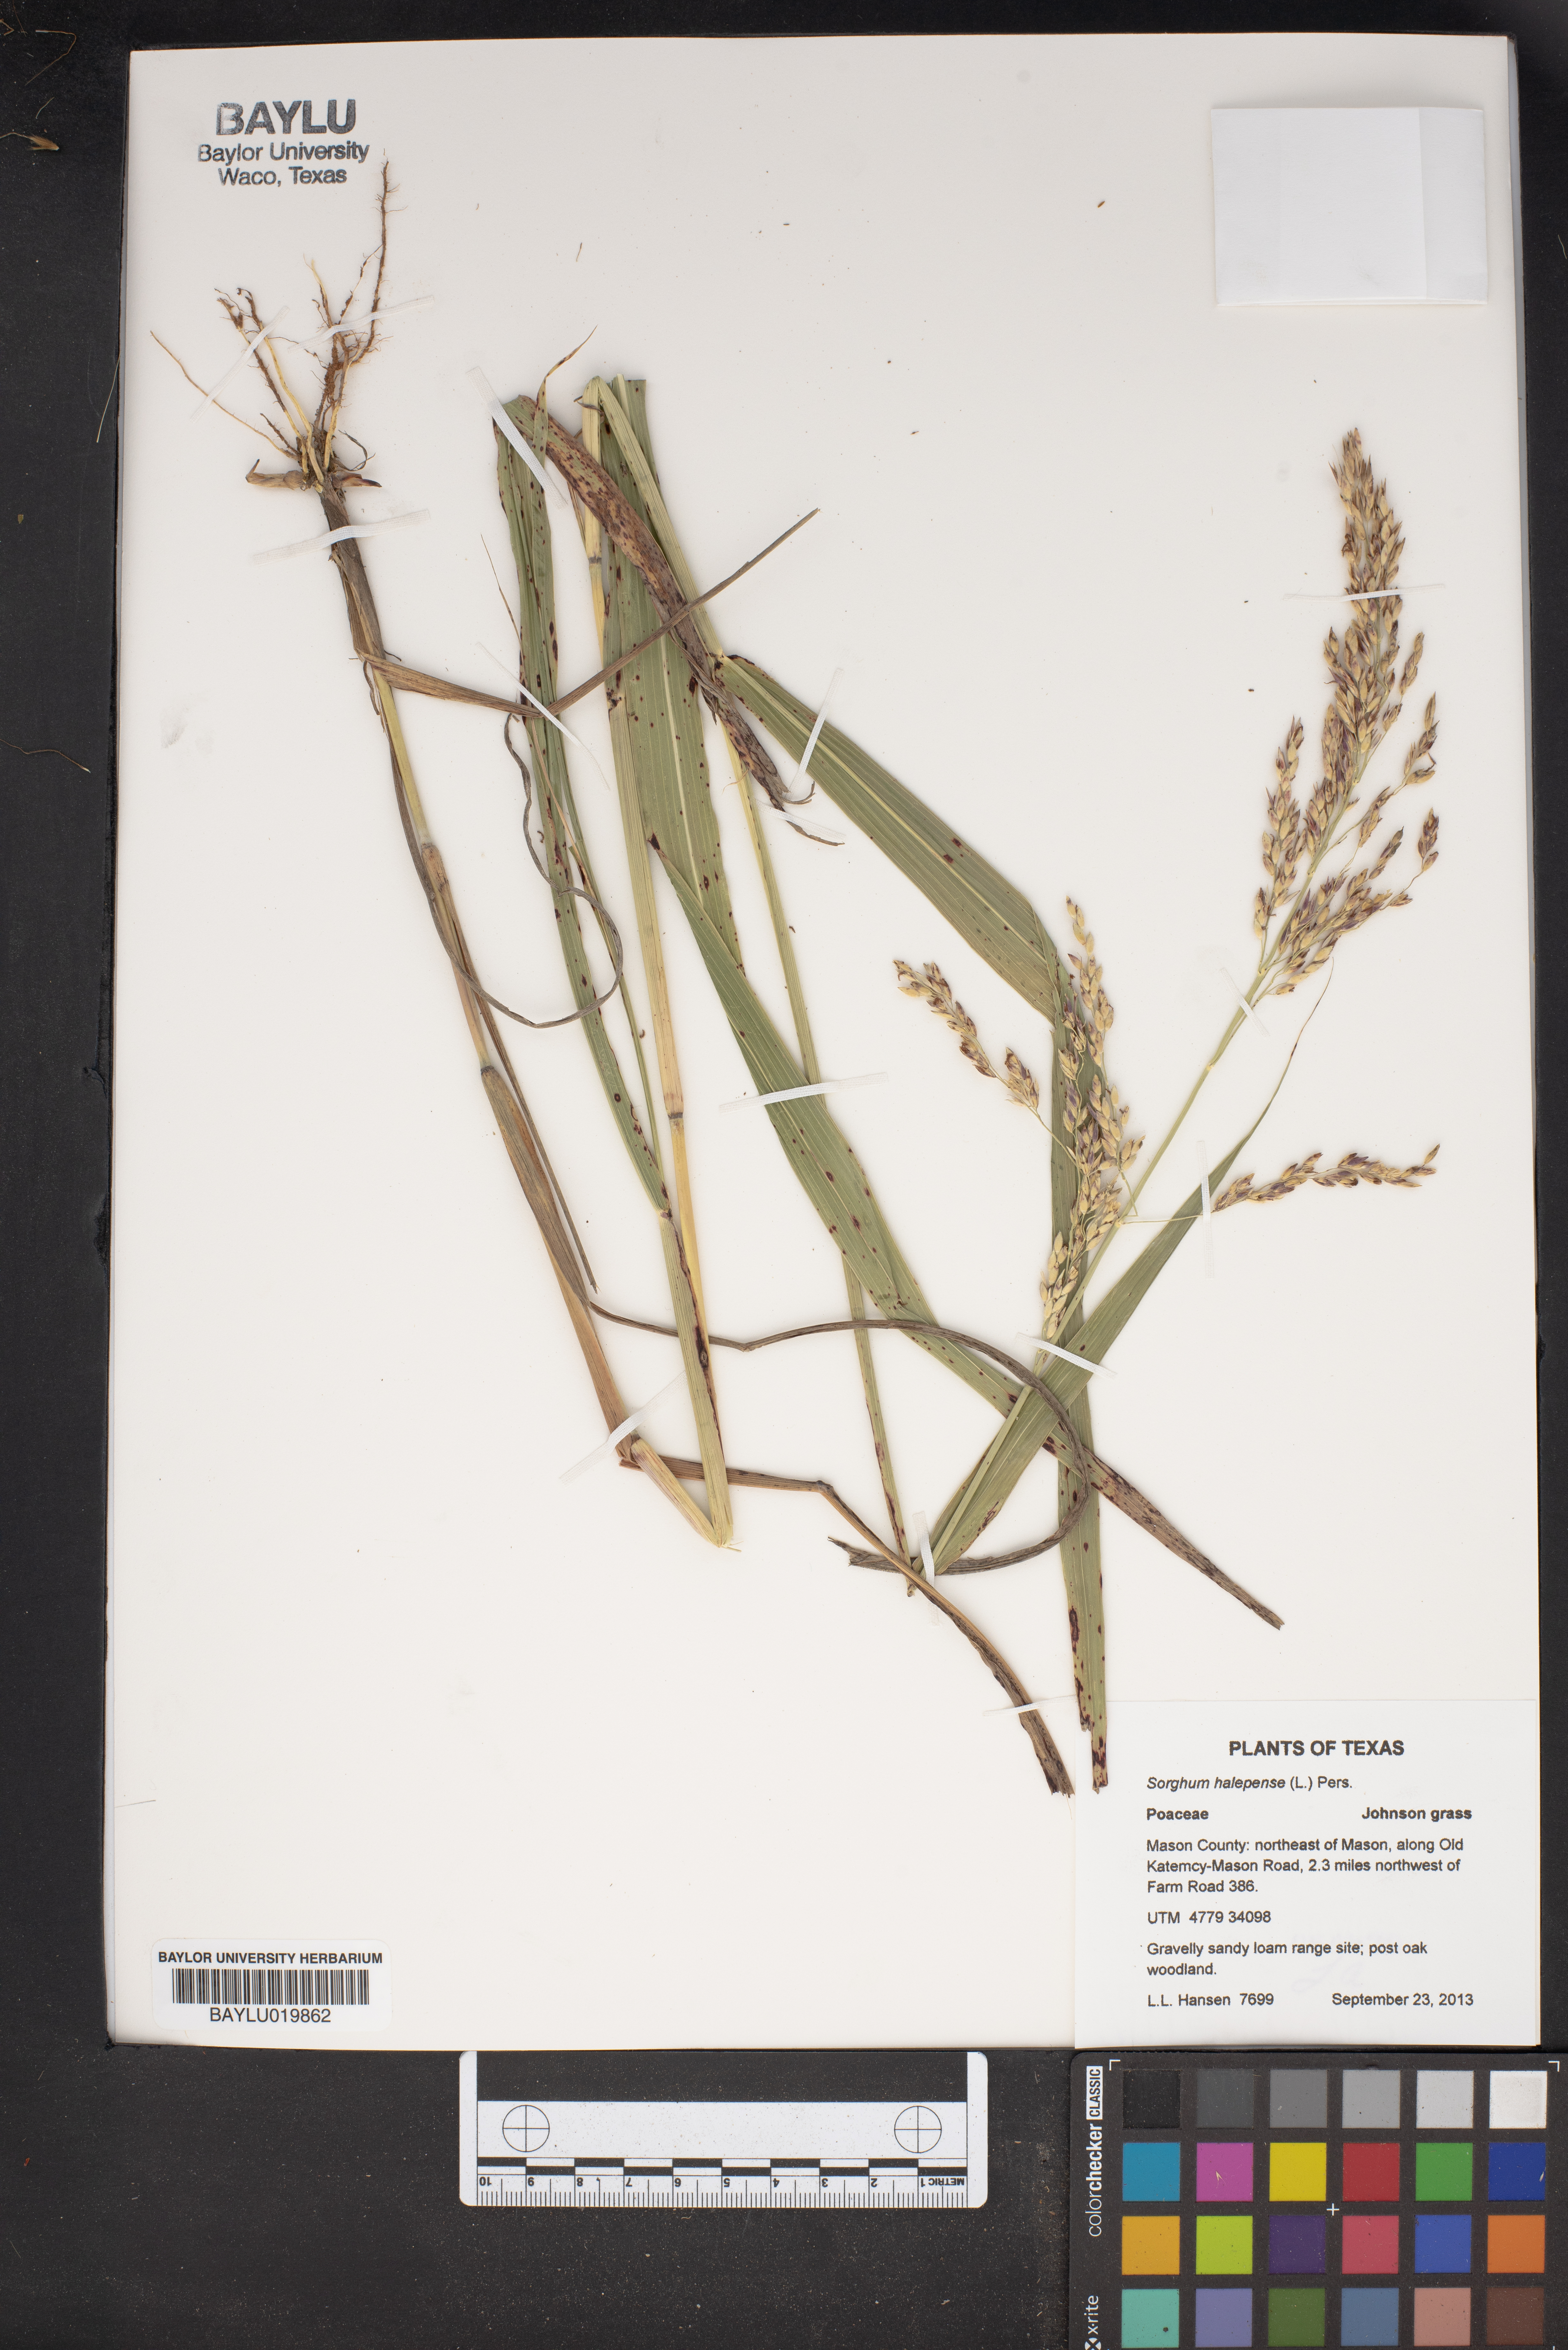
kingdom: Plantae
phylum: Tracheophyta
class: Liliopsida
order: Poales
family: Poaceae
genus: Sorghum
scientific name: Sorghum halepense
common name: Johnson-grass
